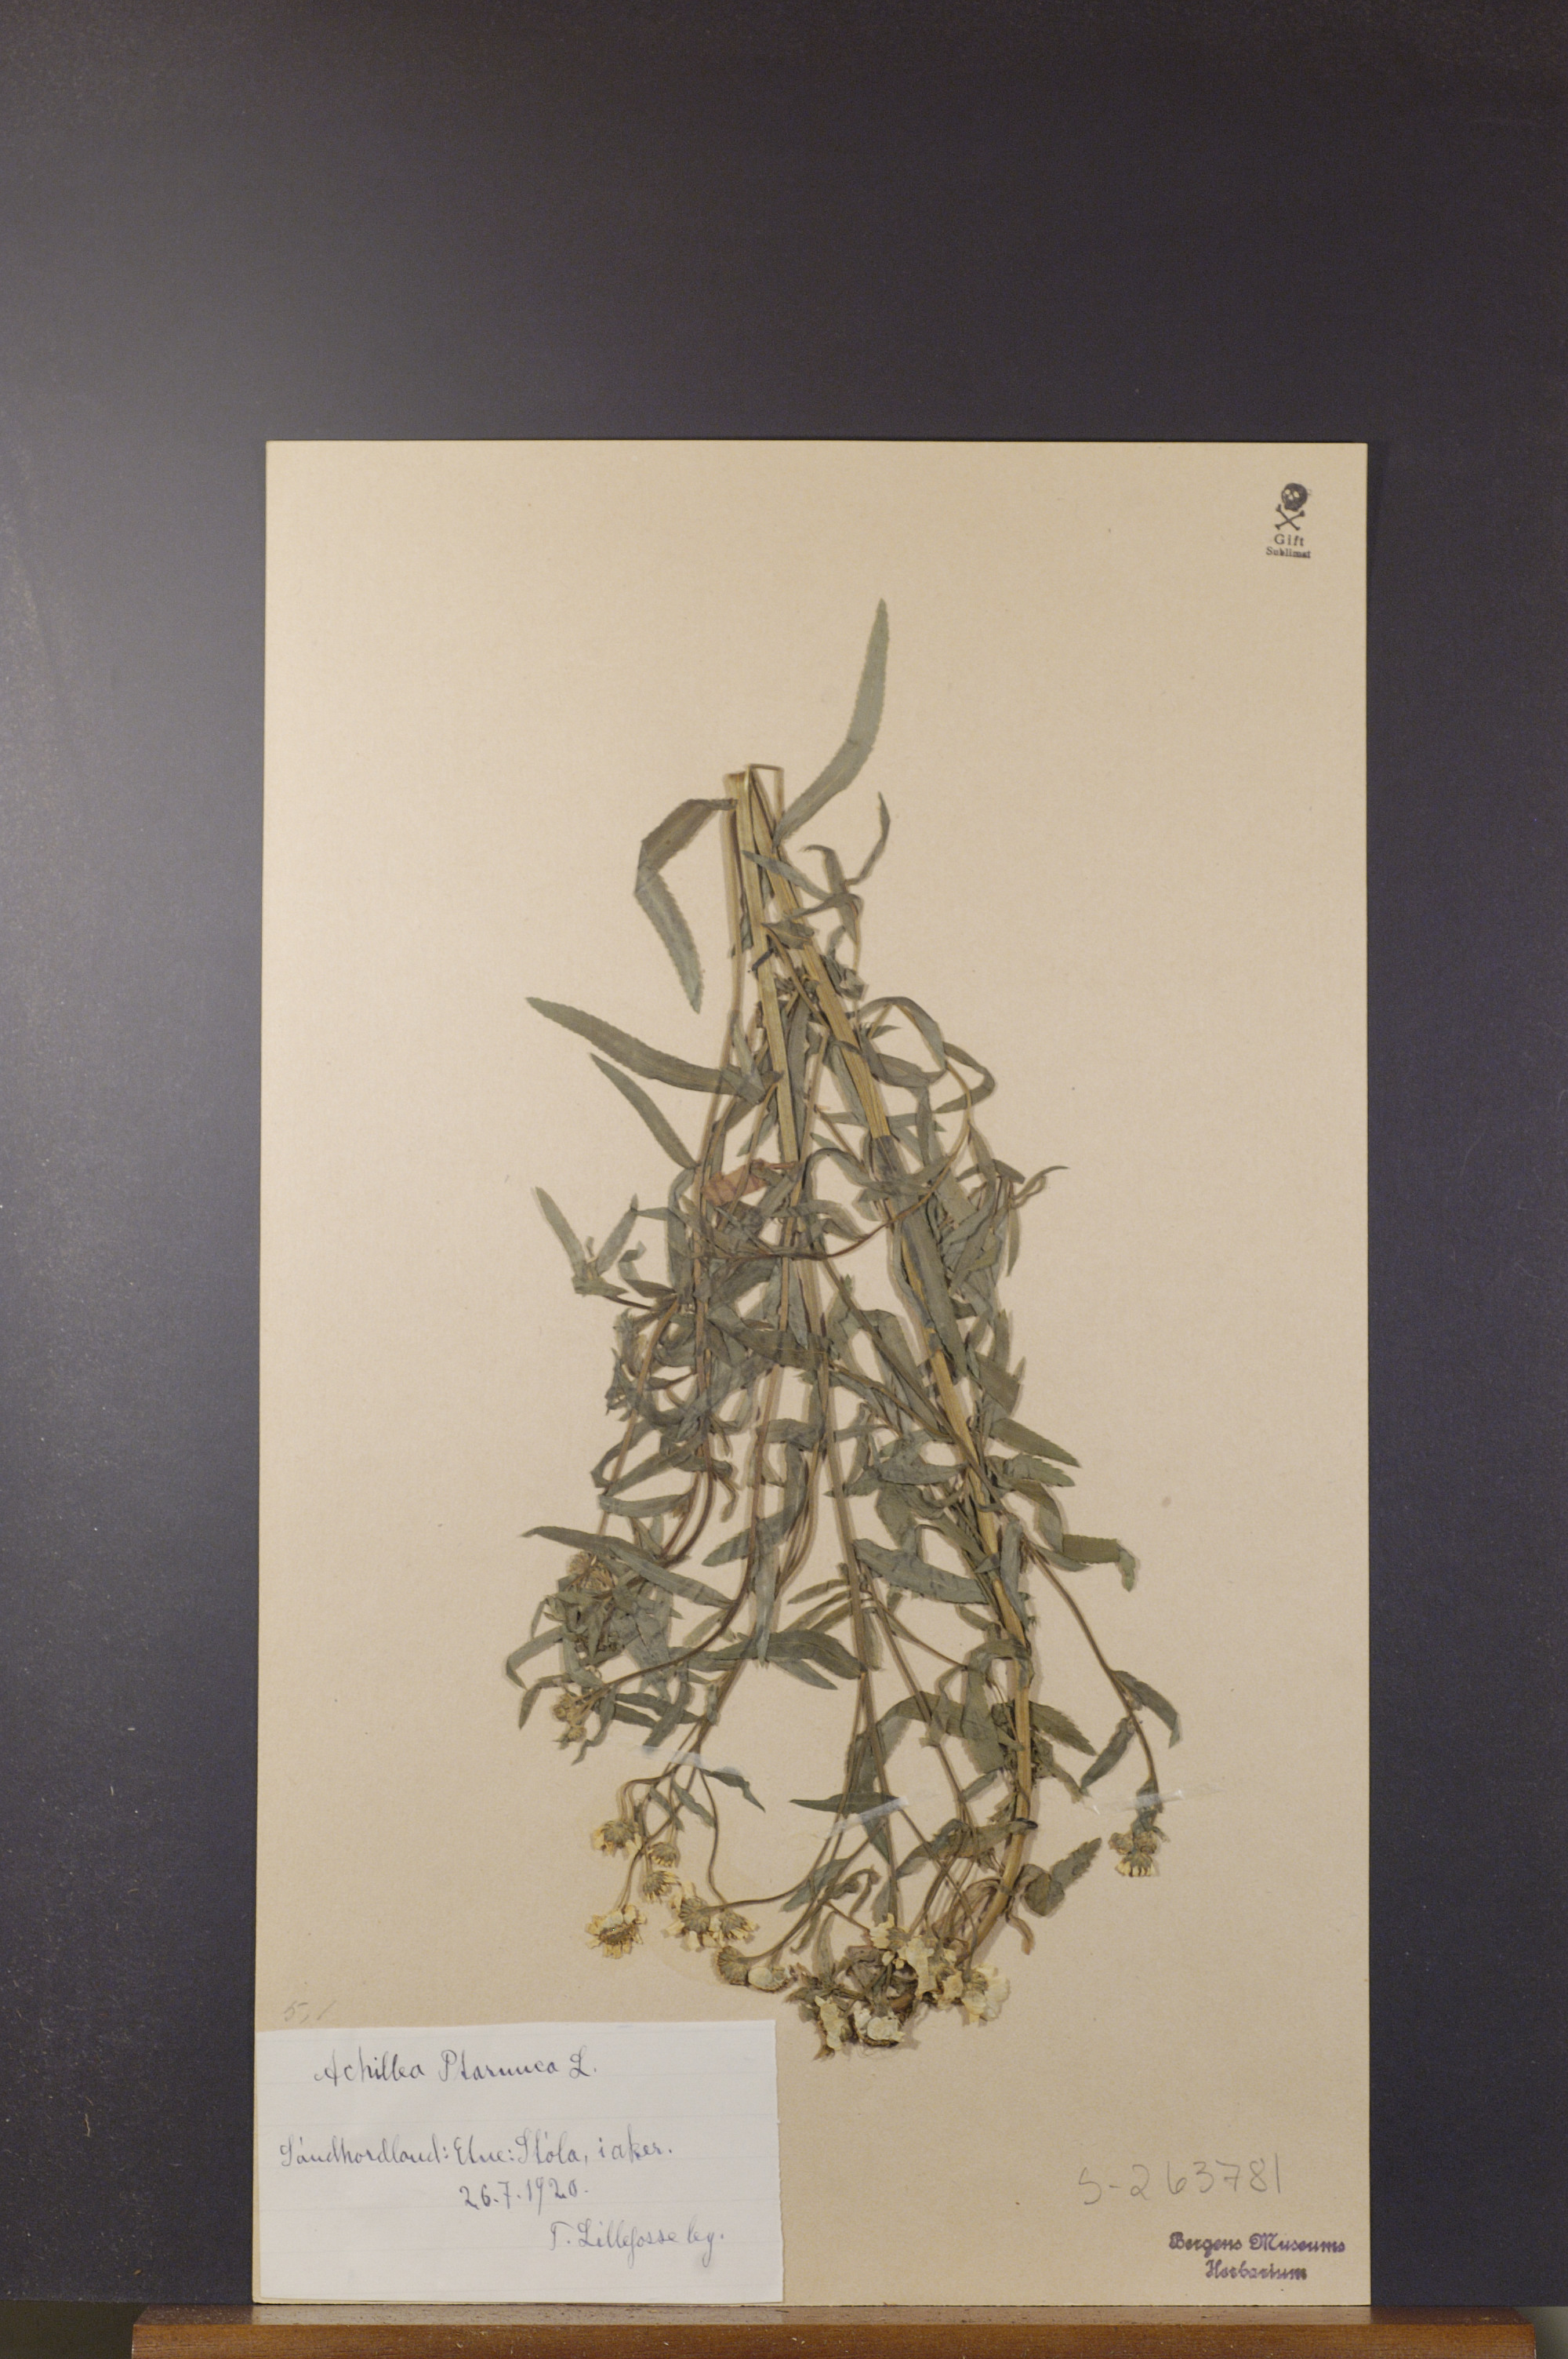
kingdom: Plantae
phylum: Tracheophyta
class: Magnoliopsida
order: Asterales
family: Asteraceae
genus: Achillea
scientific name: Achillea ptarmica
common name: Sneezeweed
